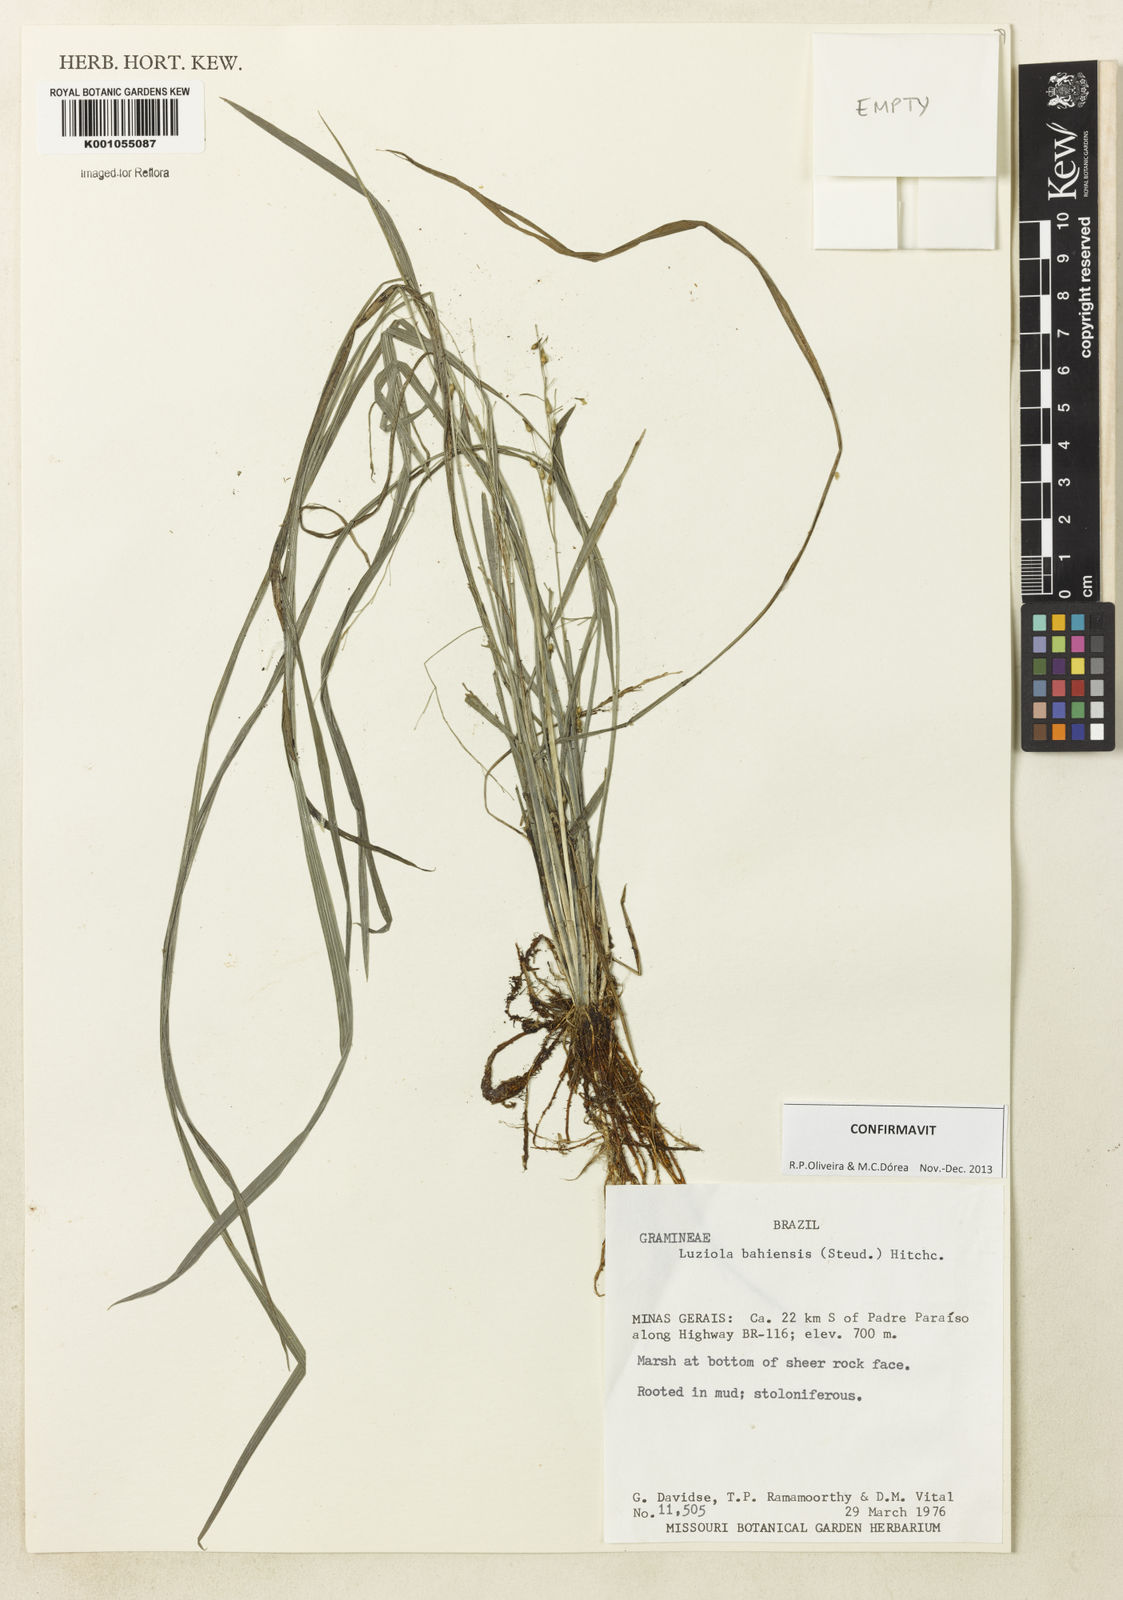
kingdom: Plantae
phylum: Tracheophyta
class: Liliopsida
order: Poales
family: Poaceae
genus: Luziola
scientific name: Luziola bahiensis
